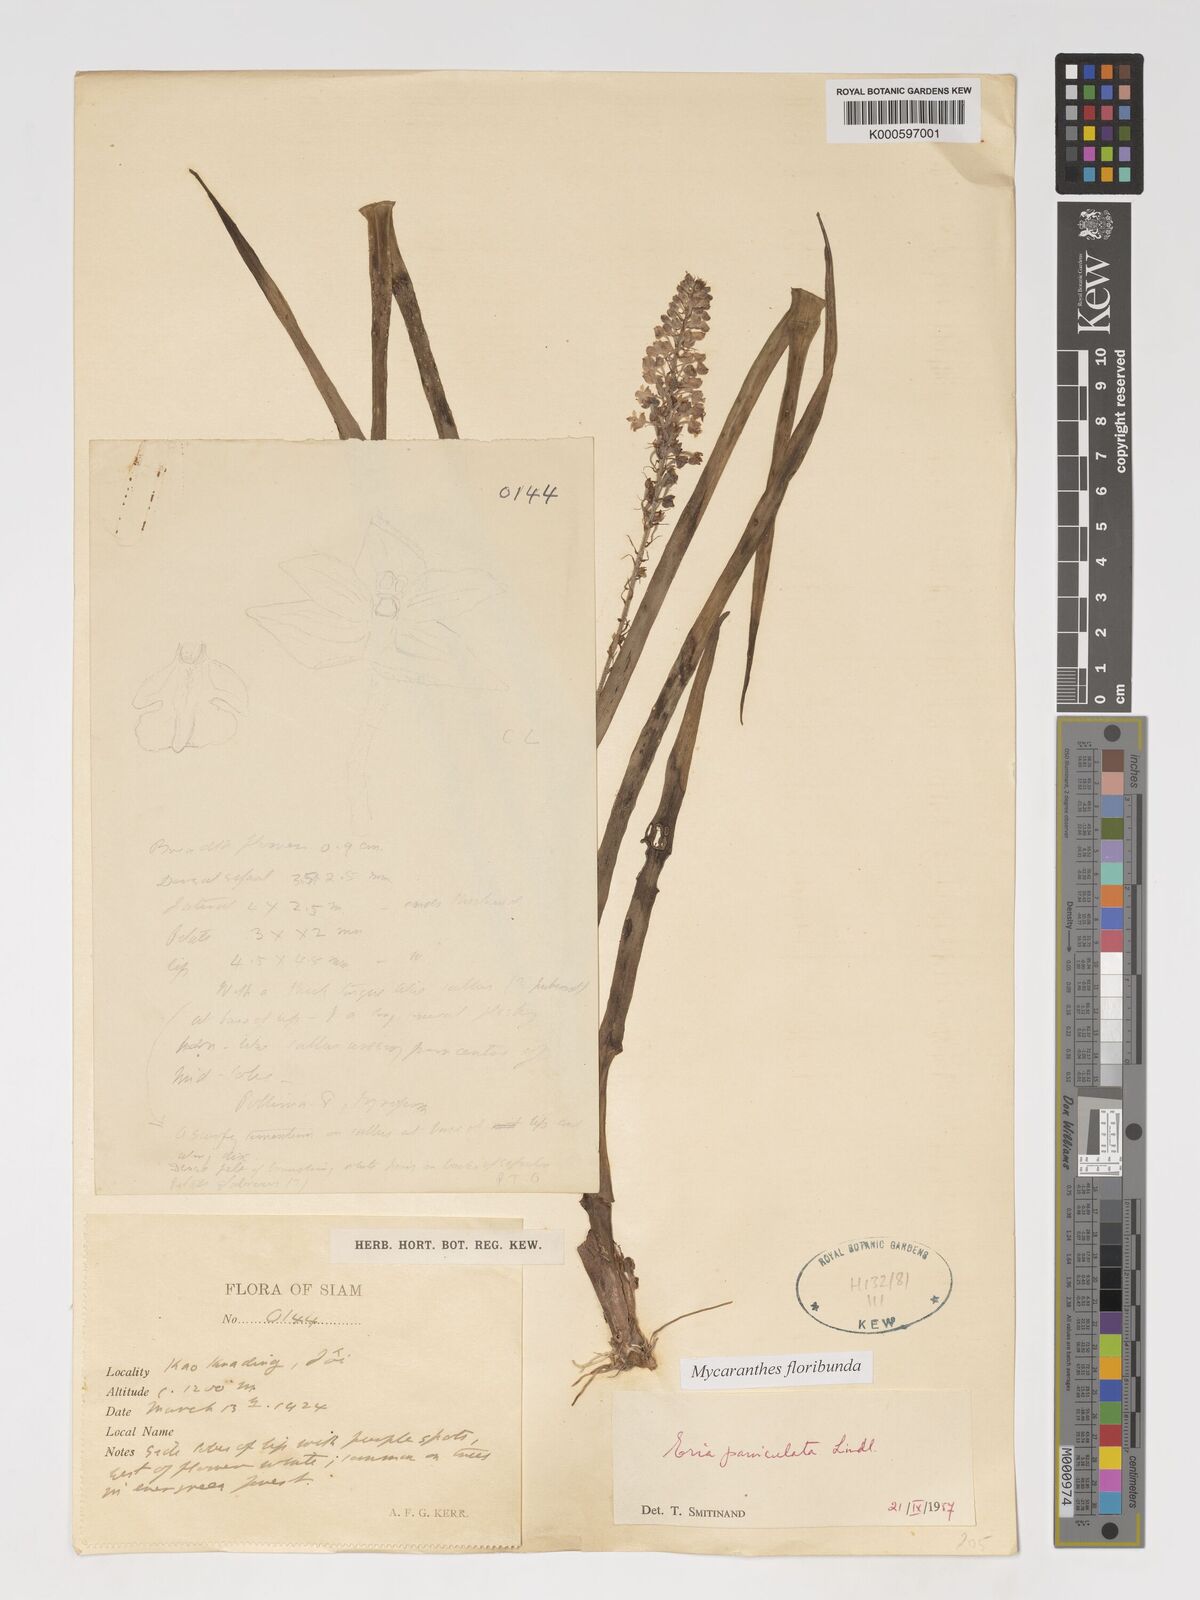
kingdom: Plantae
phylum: Tracheophyta
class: Liliopsida
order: Asparagales
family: Orchidaceae
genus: Mycaranthes
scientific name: Mycaranthes floribunda
